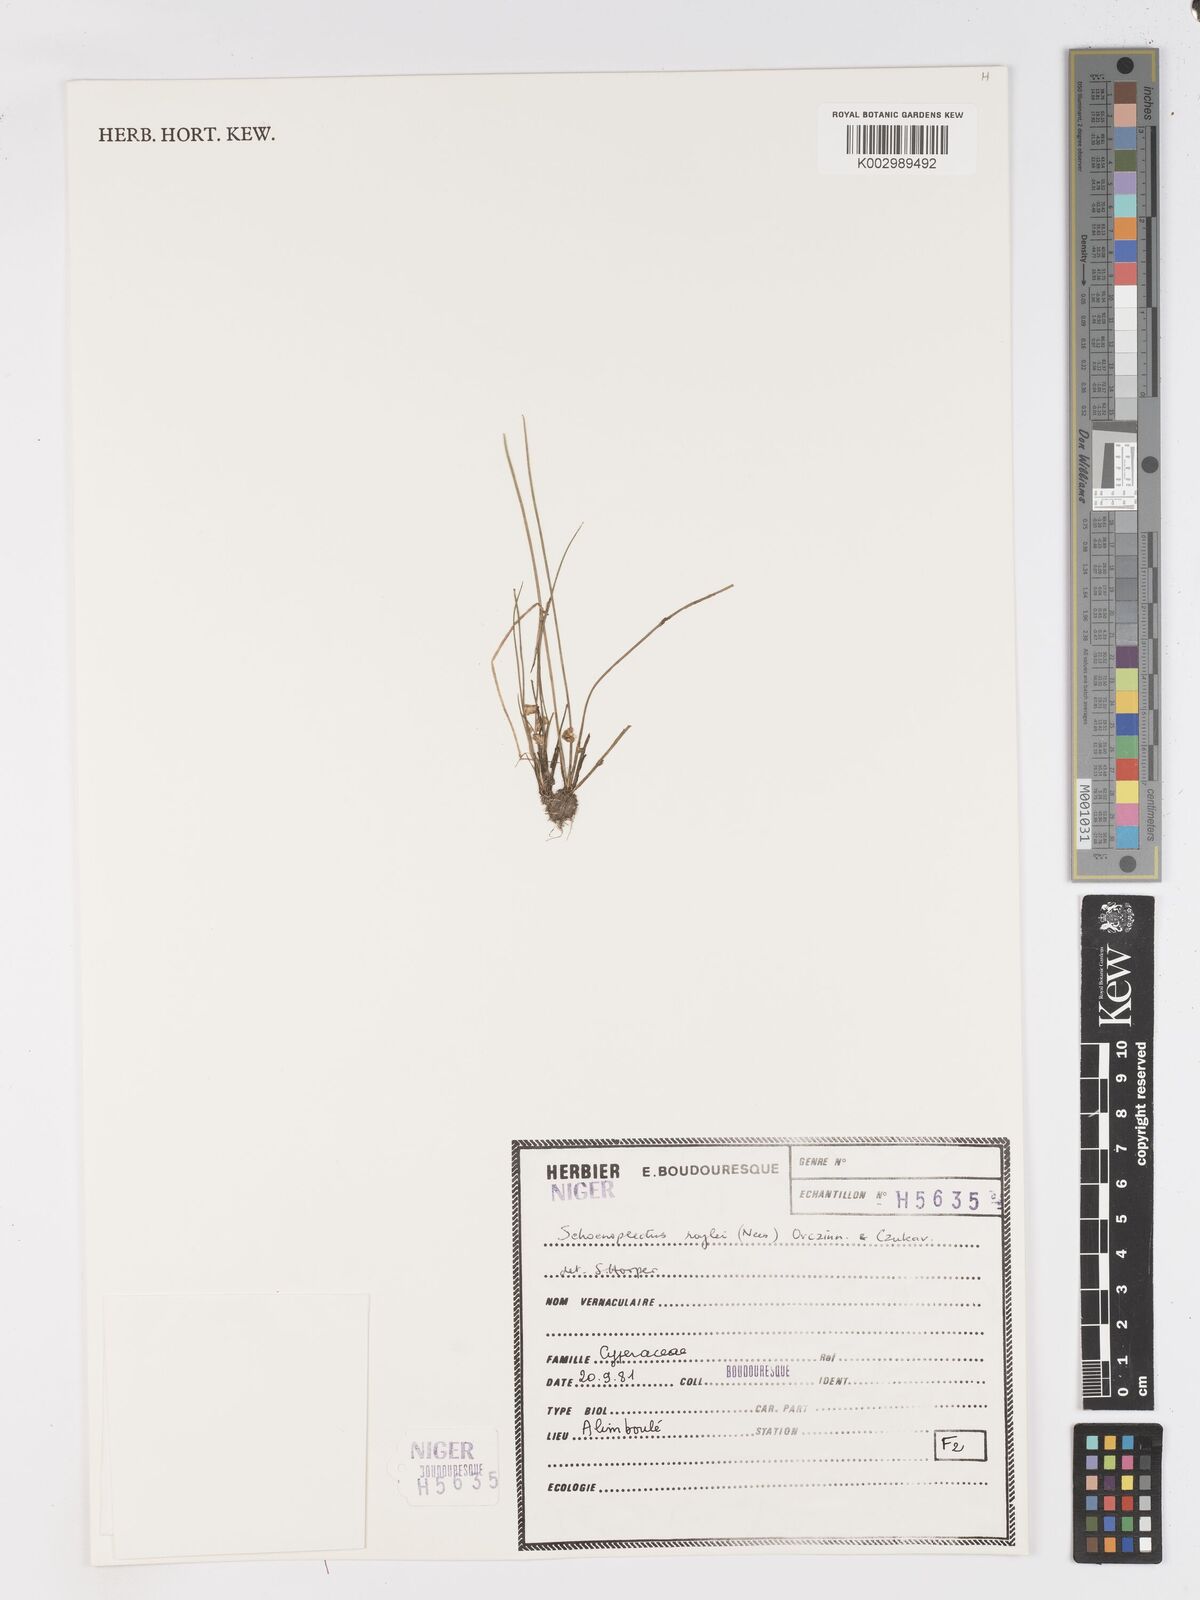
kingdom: Plantae
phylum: Tracheophyta
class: Liliopsida
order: Poales
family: Cyperaceae
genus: Schoenoplectiella
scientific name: Schoenoplectiella roylei
